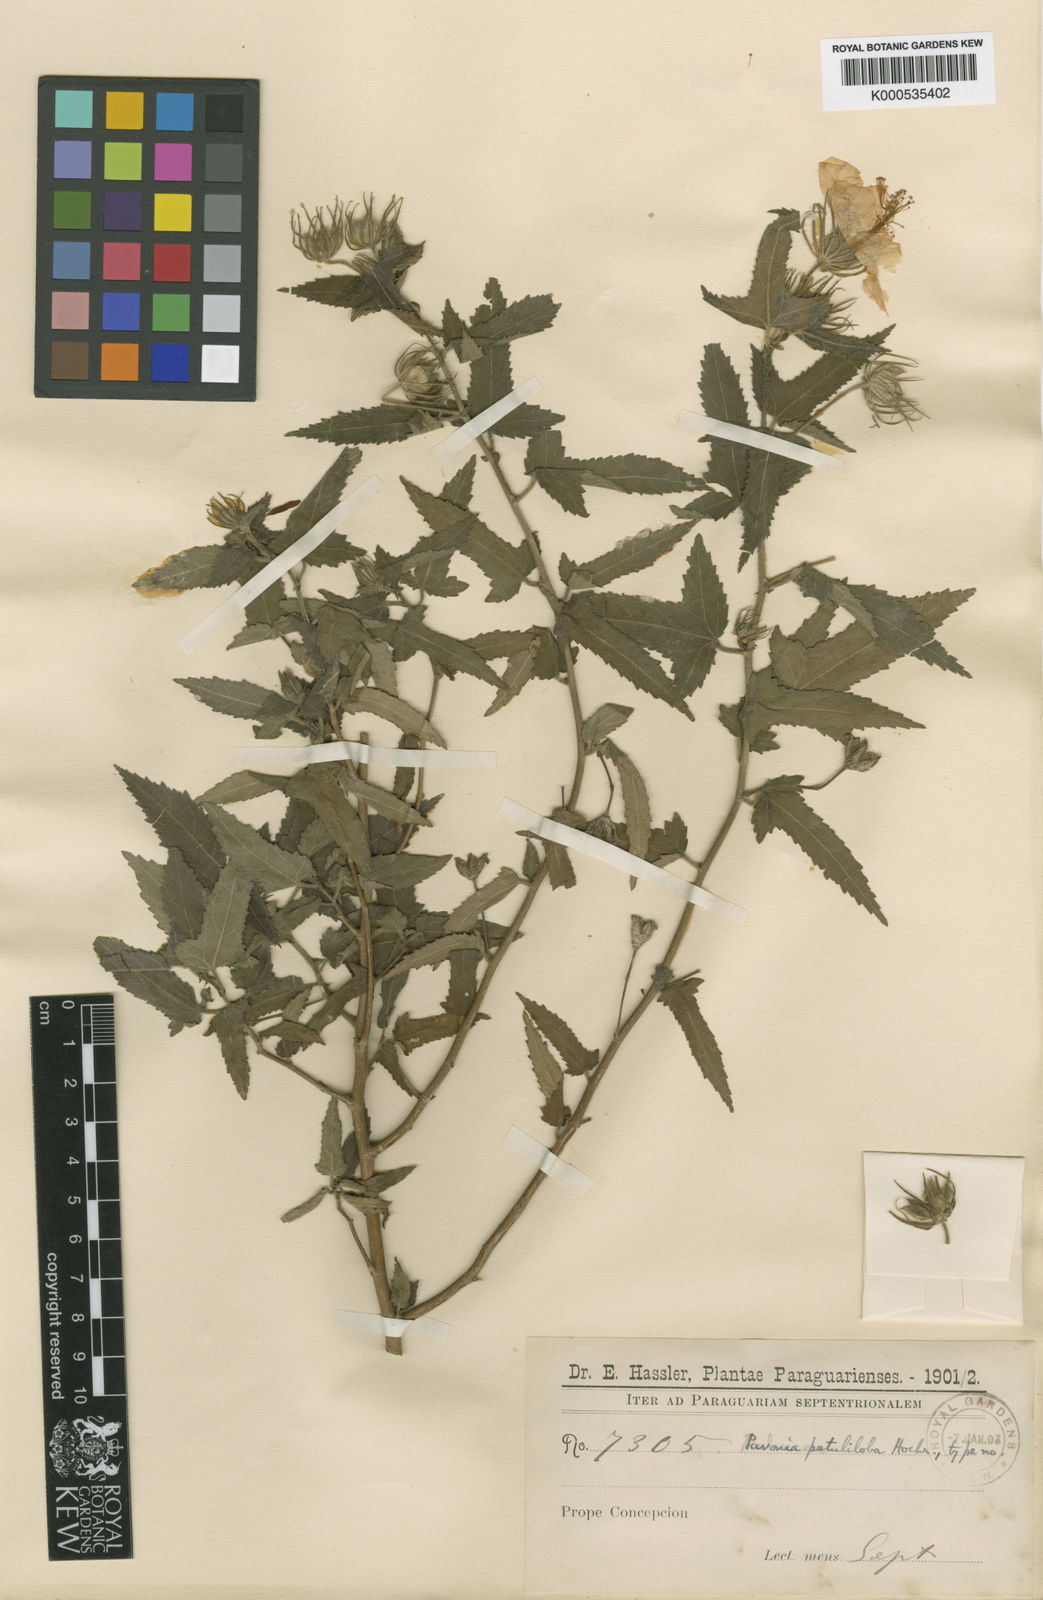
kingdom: Plantae
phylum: Tracheophyta
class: Magnoliopsida
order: Malvales
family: Malvaceae
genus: Pavonia
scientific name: Pavonia
